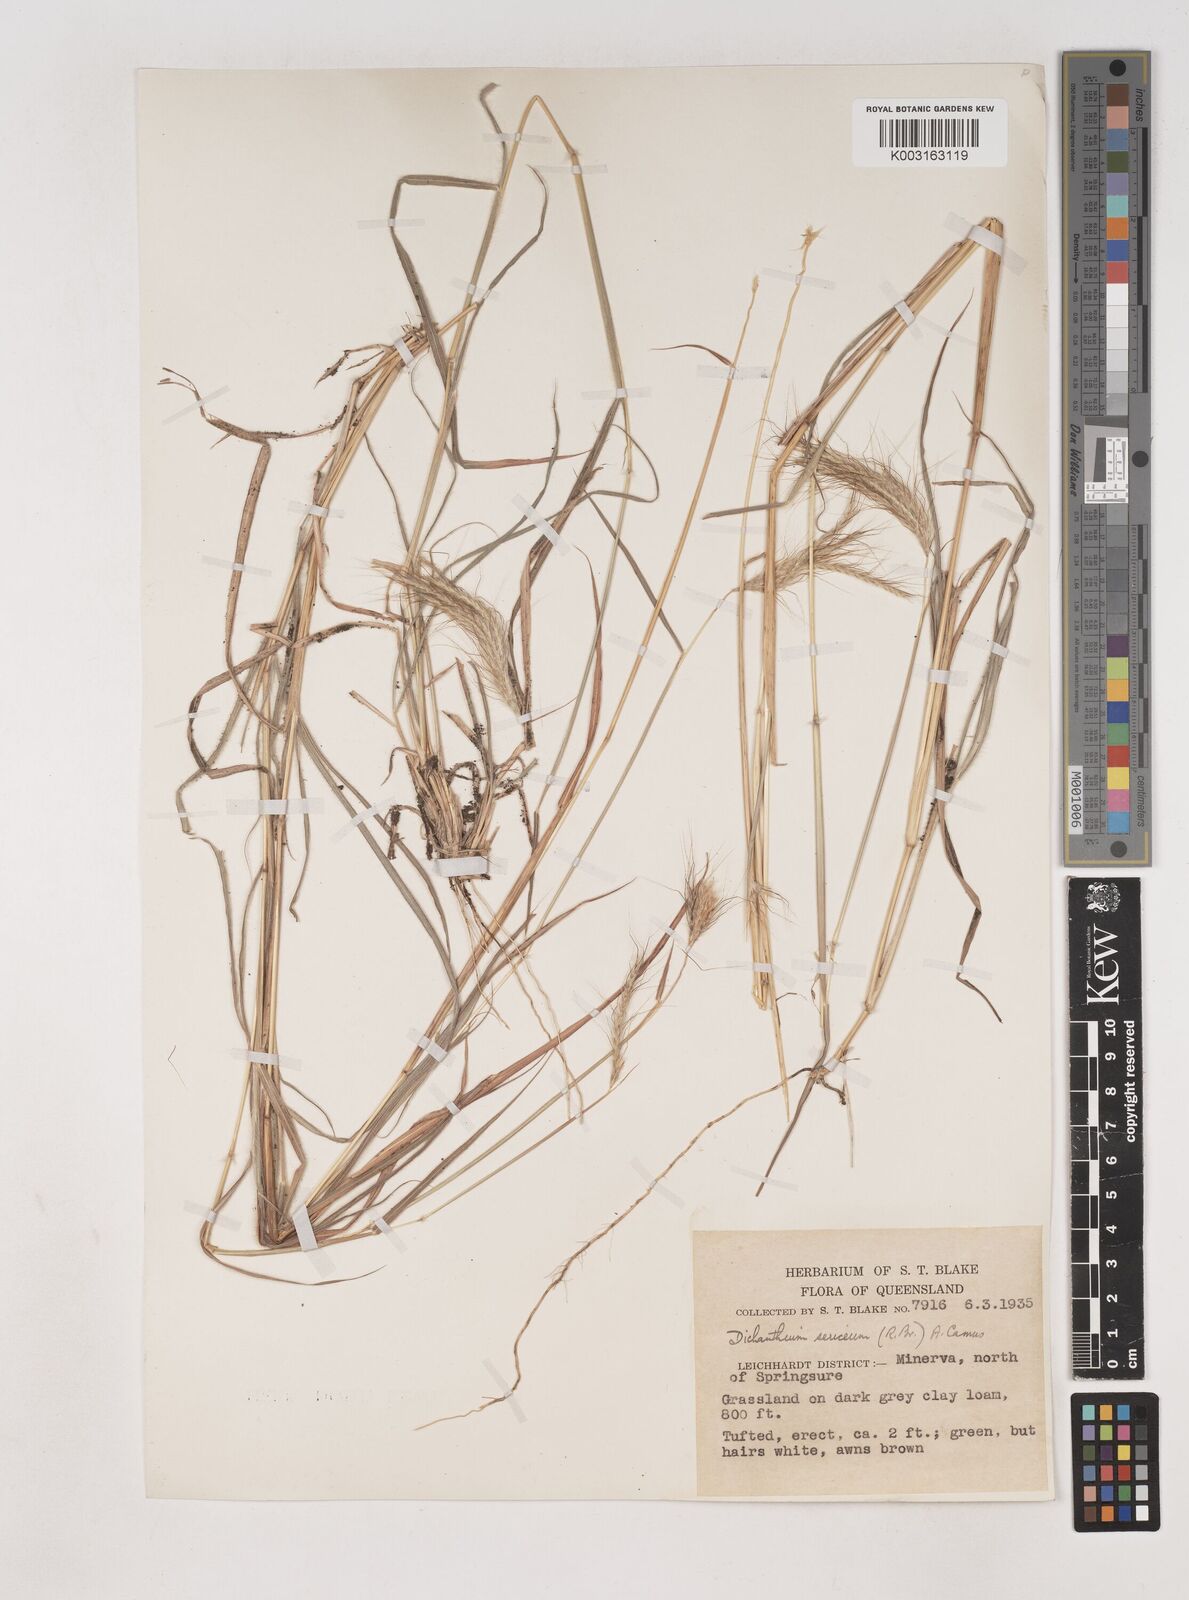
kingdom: Plantae
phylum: Tracheophyta
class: Liliopsida
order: Poales
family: Poaceae
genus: Dichanthium
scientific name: Dichanthium sericeum
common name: Silky bluestem
